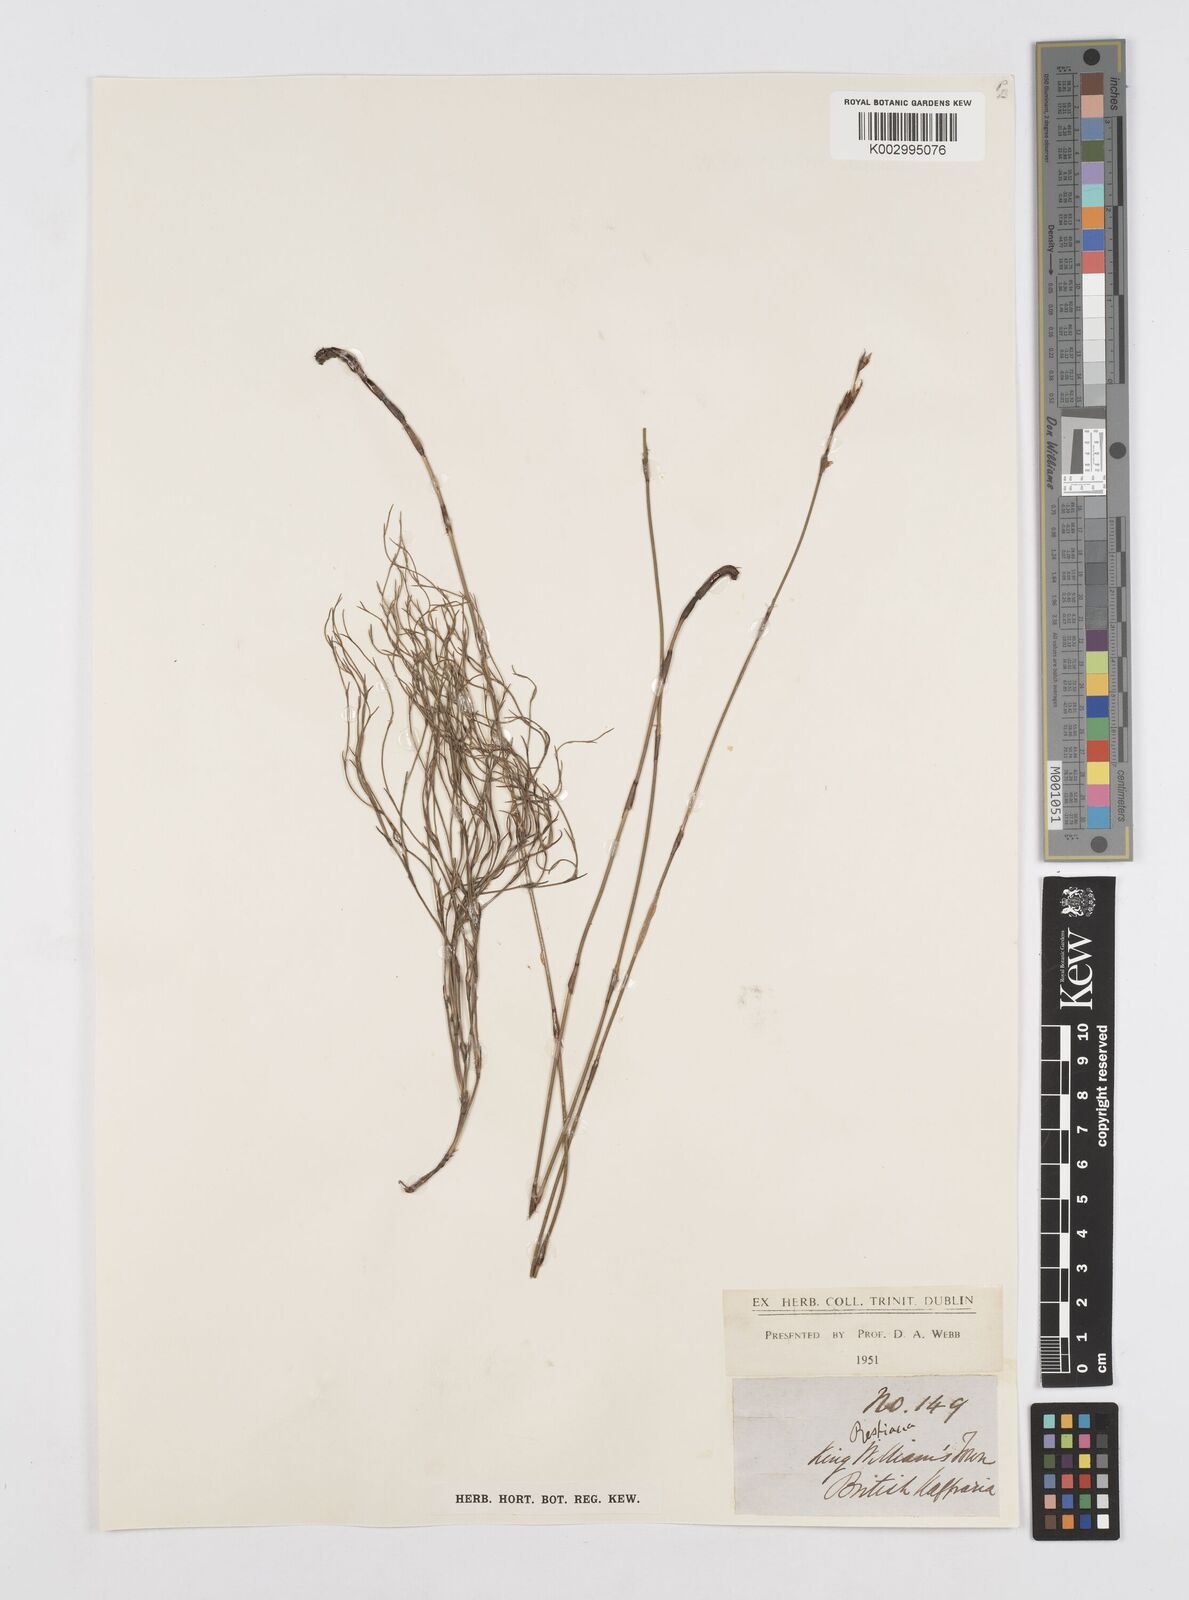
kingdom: Plantae
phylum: Tracheophyta
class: Liliopsida
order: Poales
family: Restionaceae
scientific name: Restionaceae
